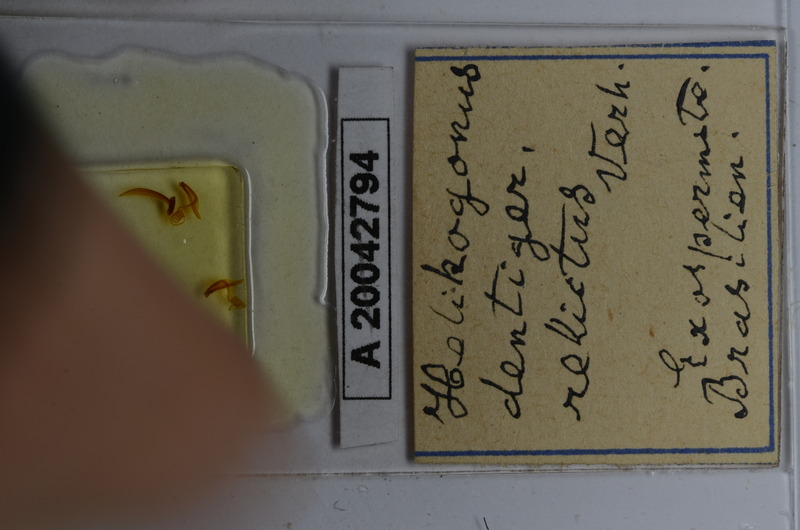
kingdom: Animalia
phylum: Arthropoda
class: Diplopoda
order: Spirostreptida
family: Spirostreptidae
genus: Helicogonus
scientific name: Helicogonus dentiger
